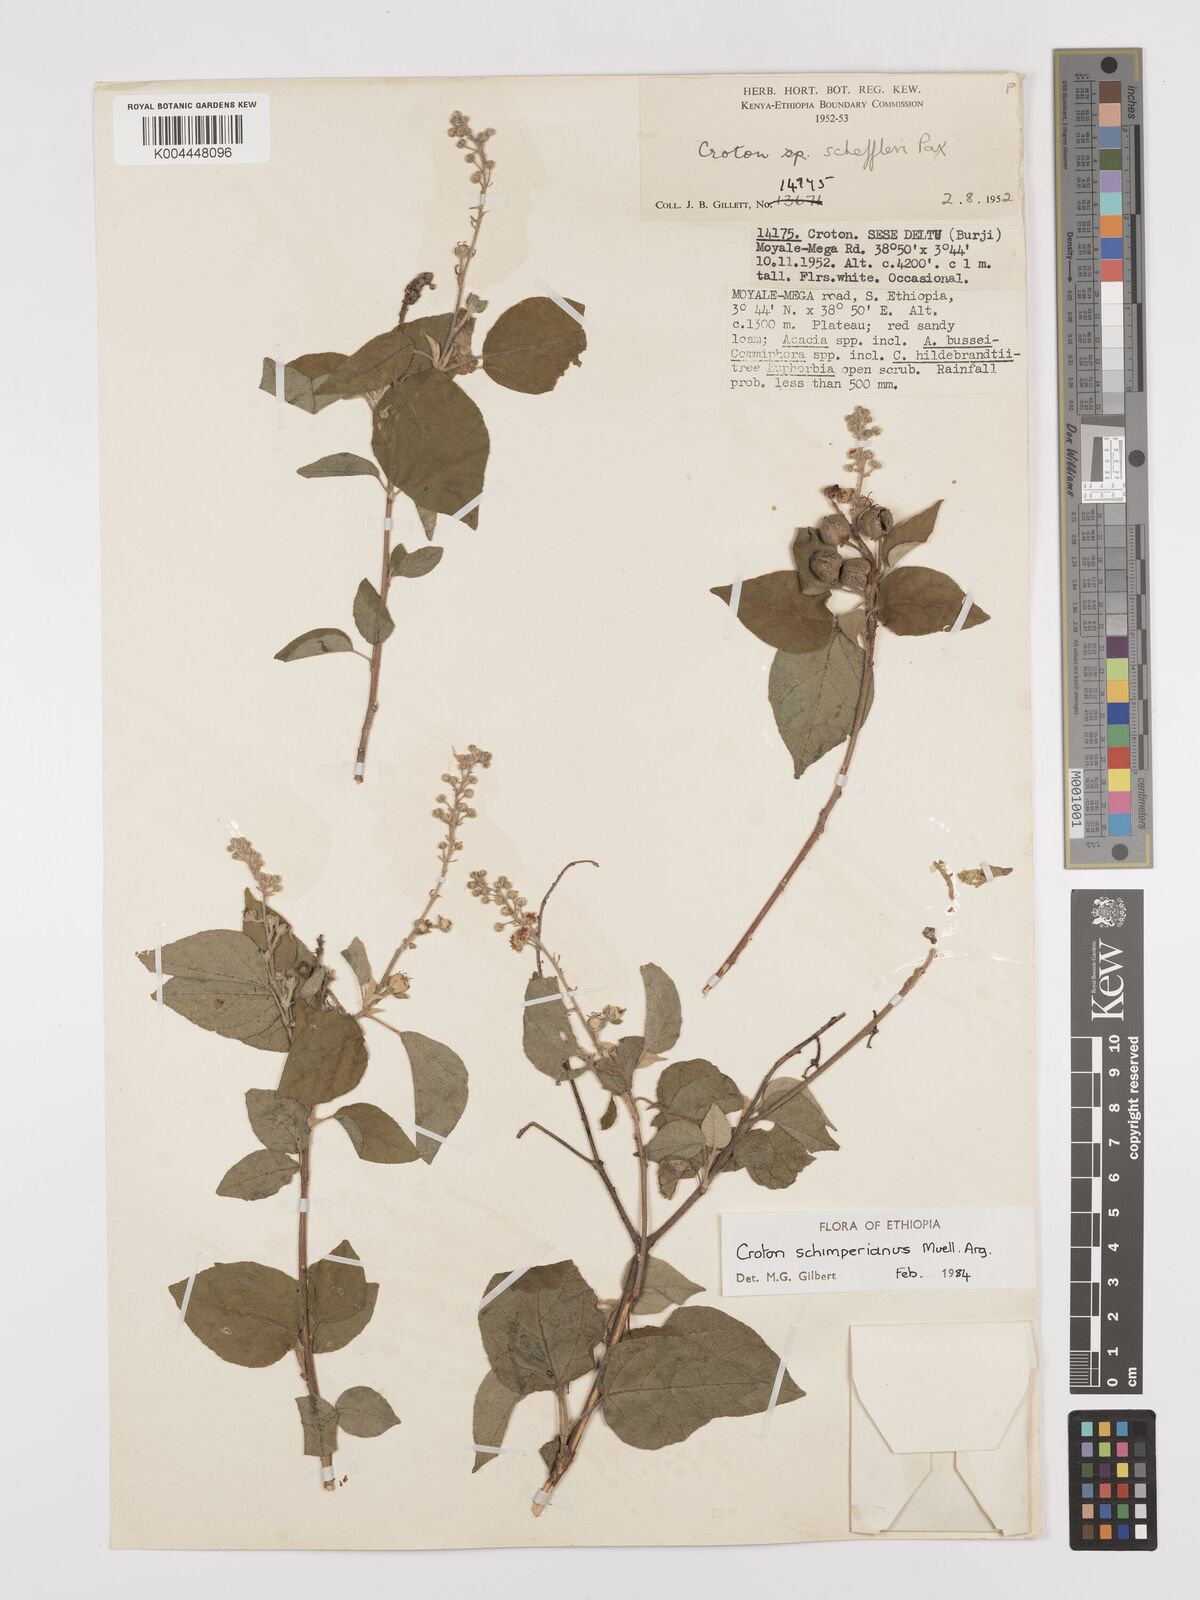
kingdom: Plantae
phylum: Tracheophyta
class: Magnoliopsida
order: Malpighiales
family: Euphorbiaceae
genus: Croton
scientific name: Croton schimperianus
